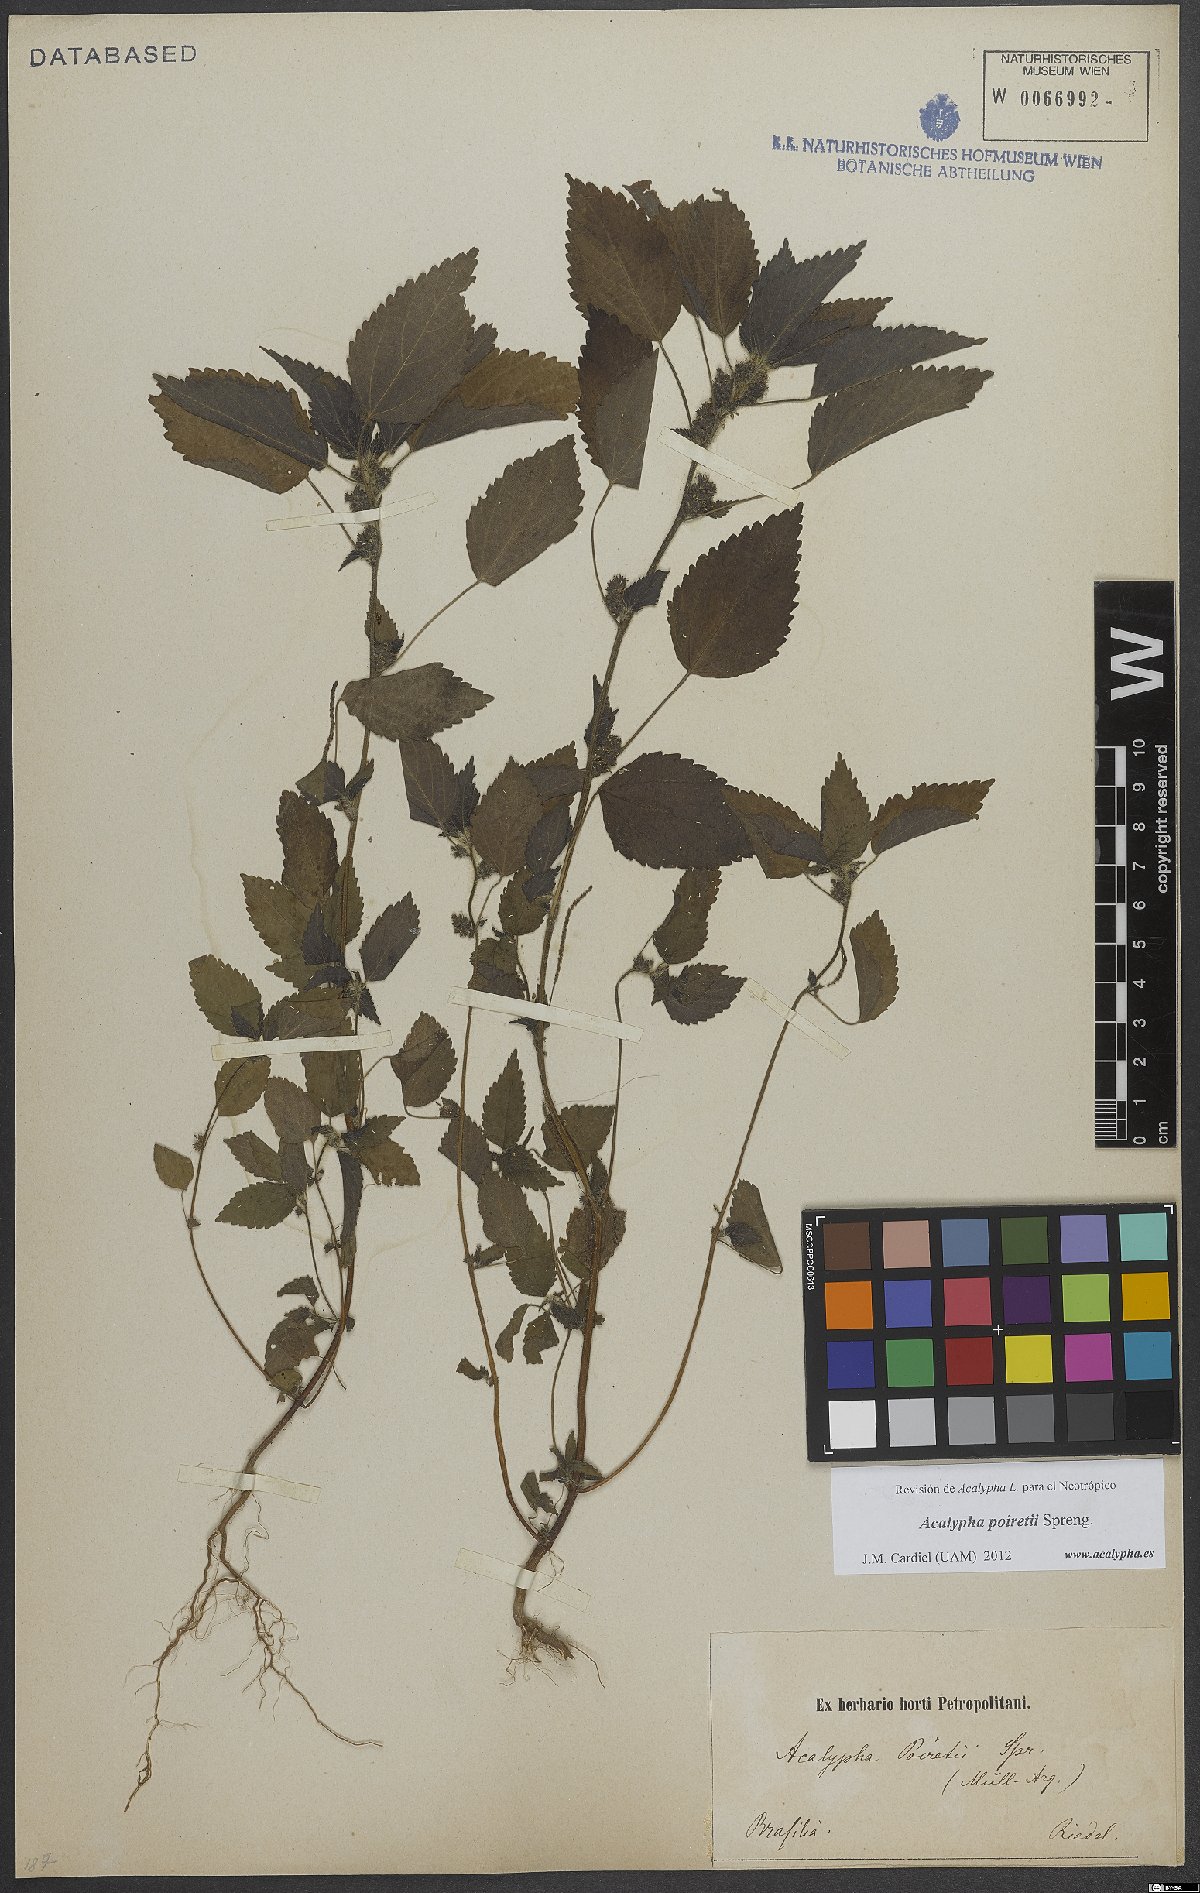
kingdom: Plantae
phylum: Tracheophyta
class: Magnoliopsida
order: Malpighiales
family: Euphorbiaceae
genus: Acalypha
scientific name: Acalypha poiretii
